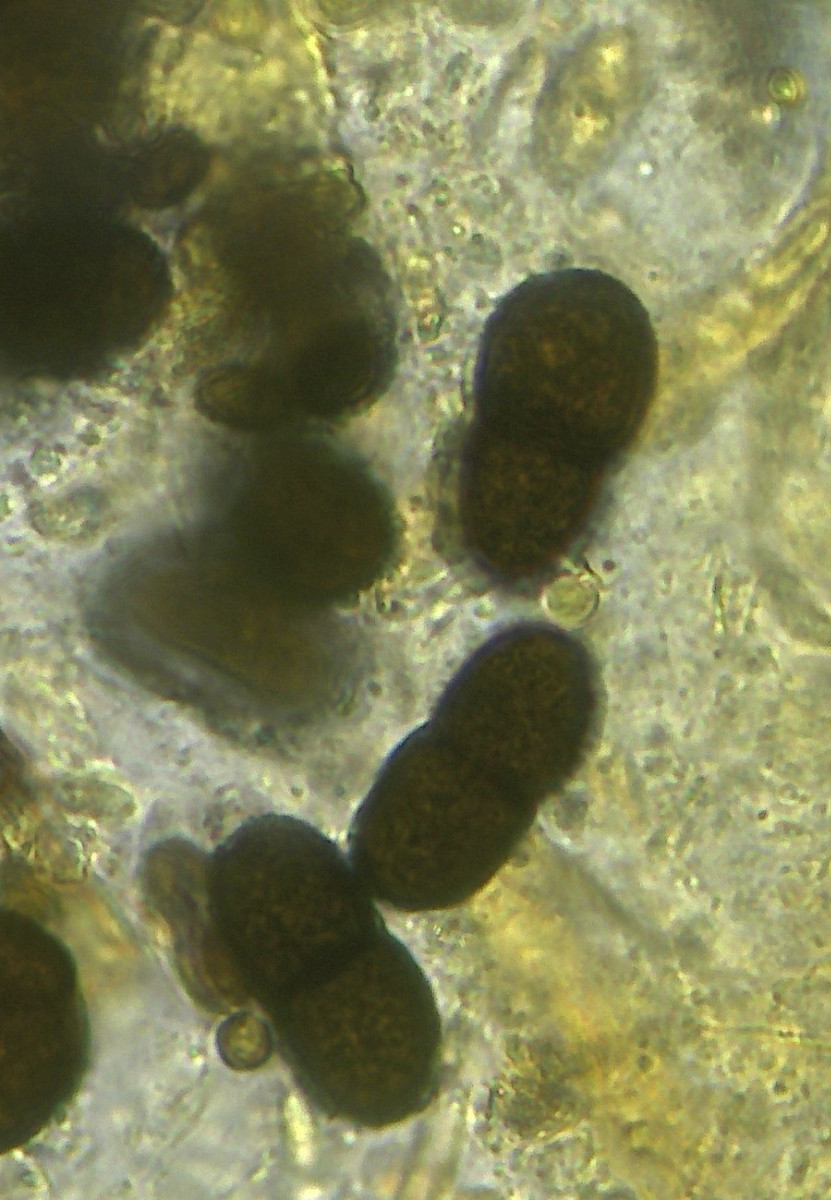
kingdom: Plantae
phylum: Bryophyta
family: Dothideomycetes
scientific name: Dothideomycetes
